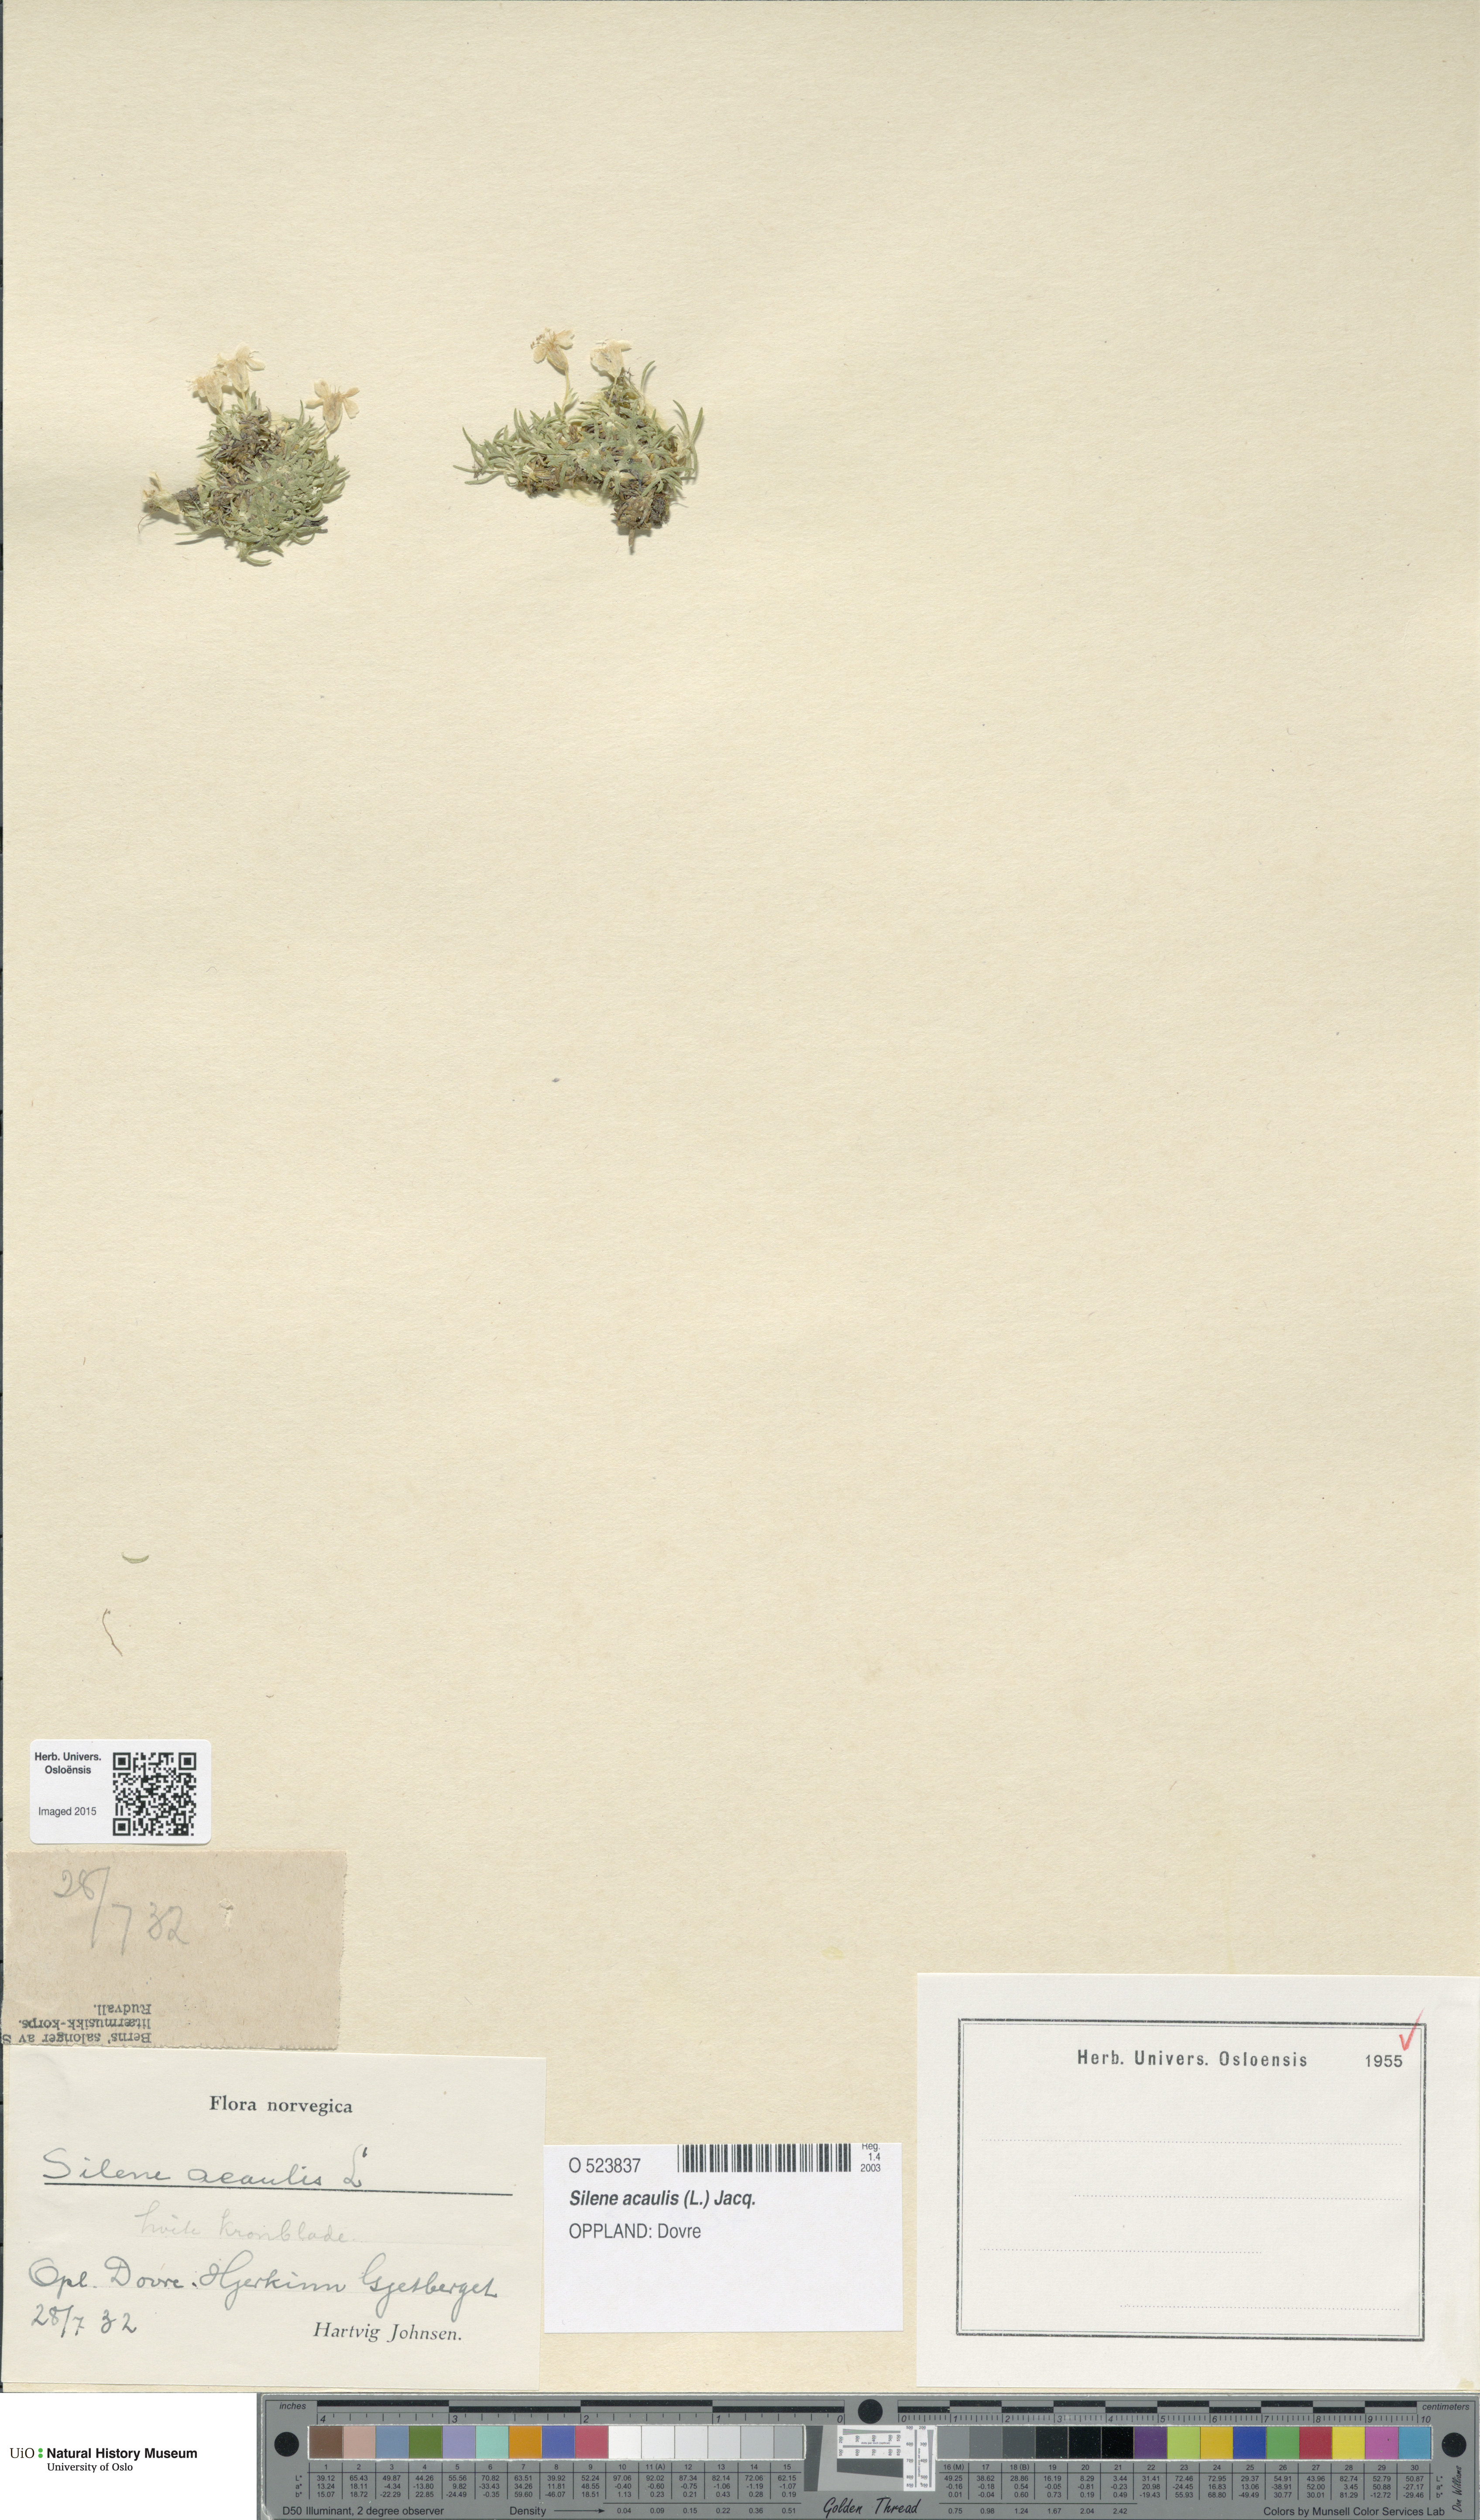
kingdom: Plantae
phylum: Tracheophyta
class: Magnoliopsida
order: Caryophyllales
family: Caryophyllaceae
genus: Silene
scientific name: Silene acaulis
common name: Moss campion
